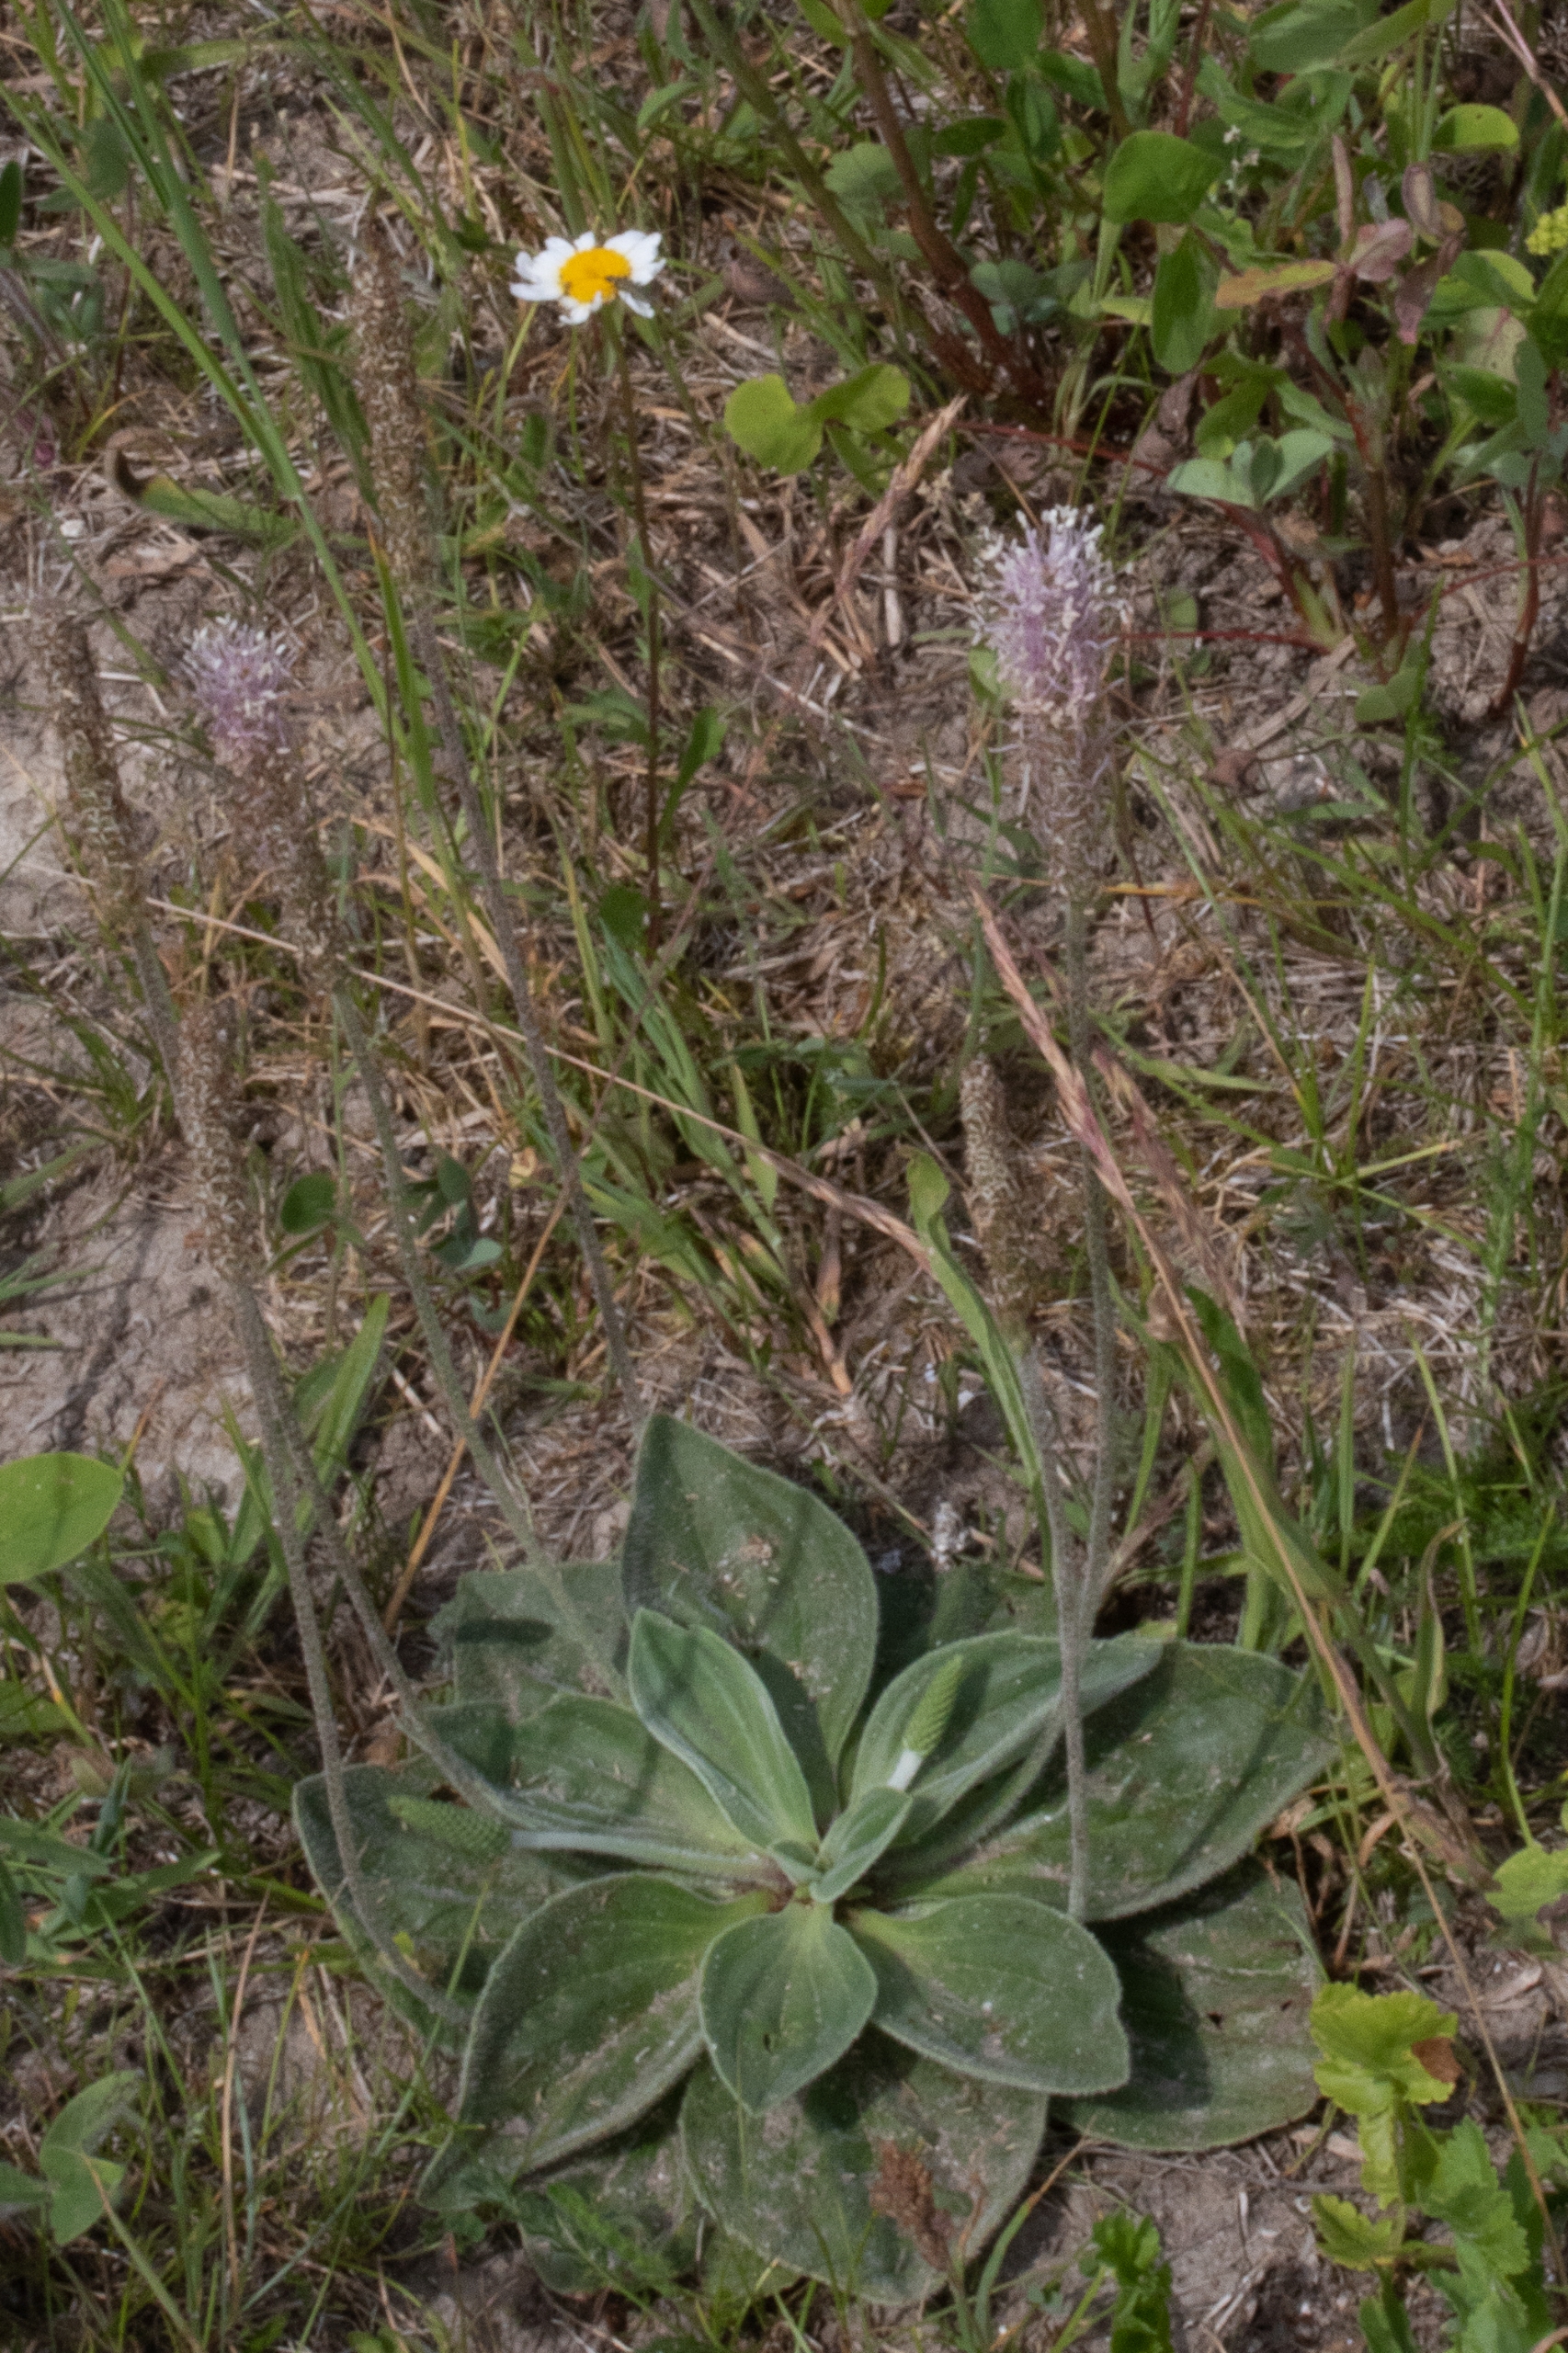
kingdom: Plantae
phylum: Tracheophyta
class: Magnoliopsida
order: Lamiales
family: Plantaginaceae
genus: Plantago
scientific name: Plantago media
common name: Dunet vejbred
